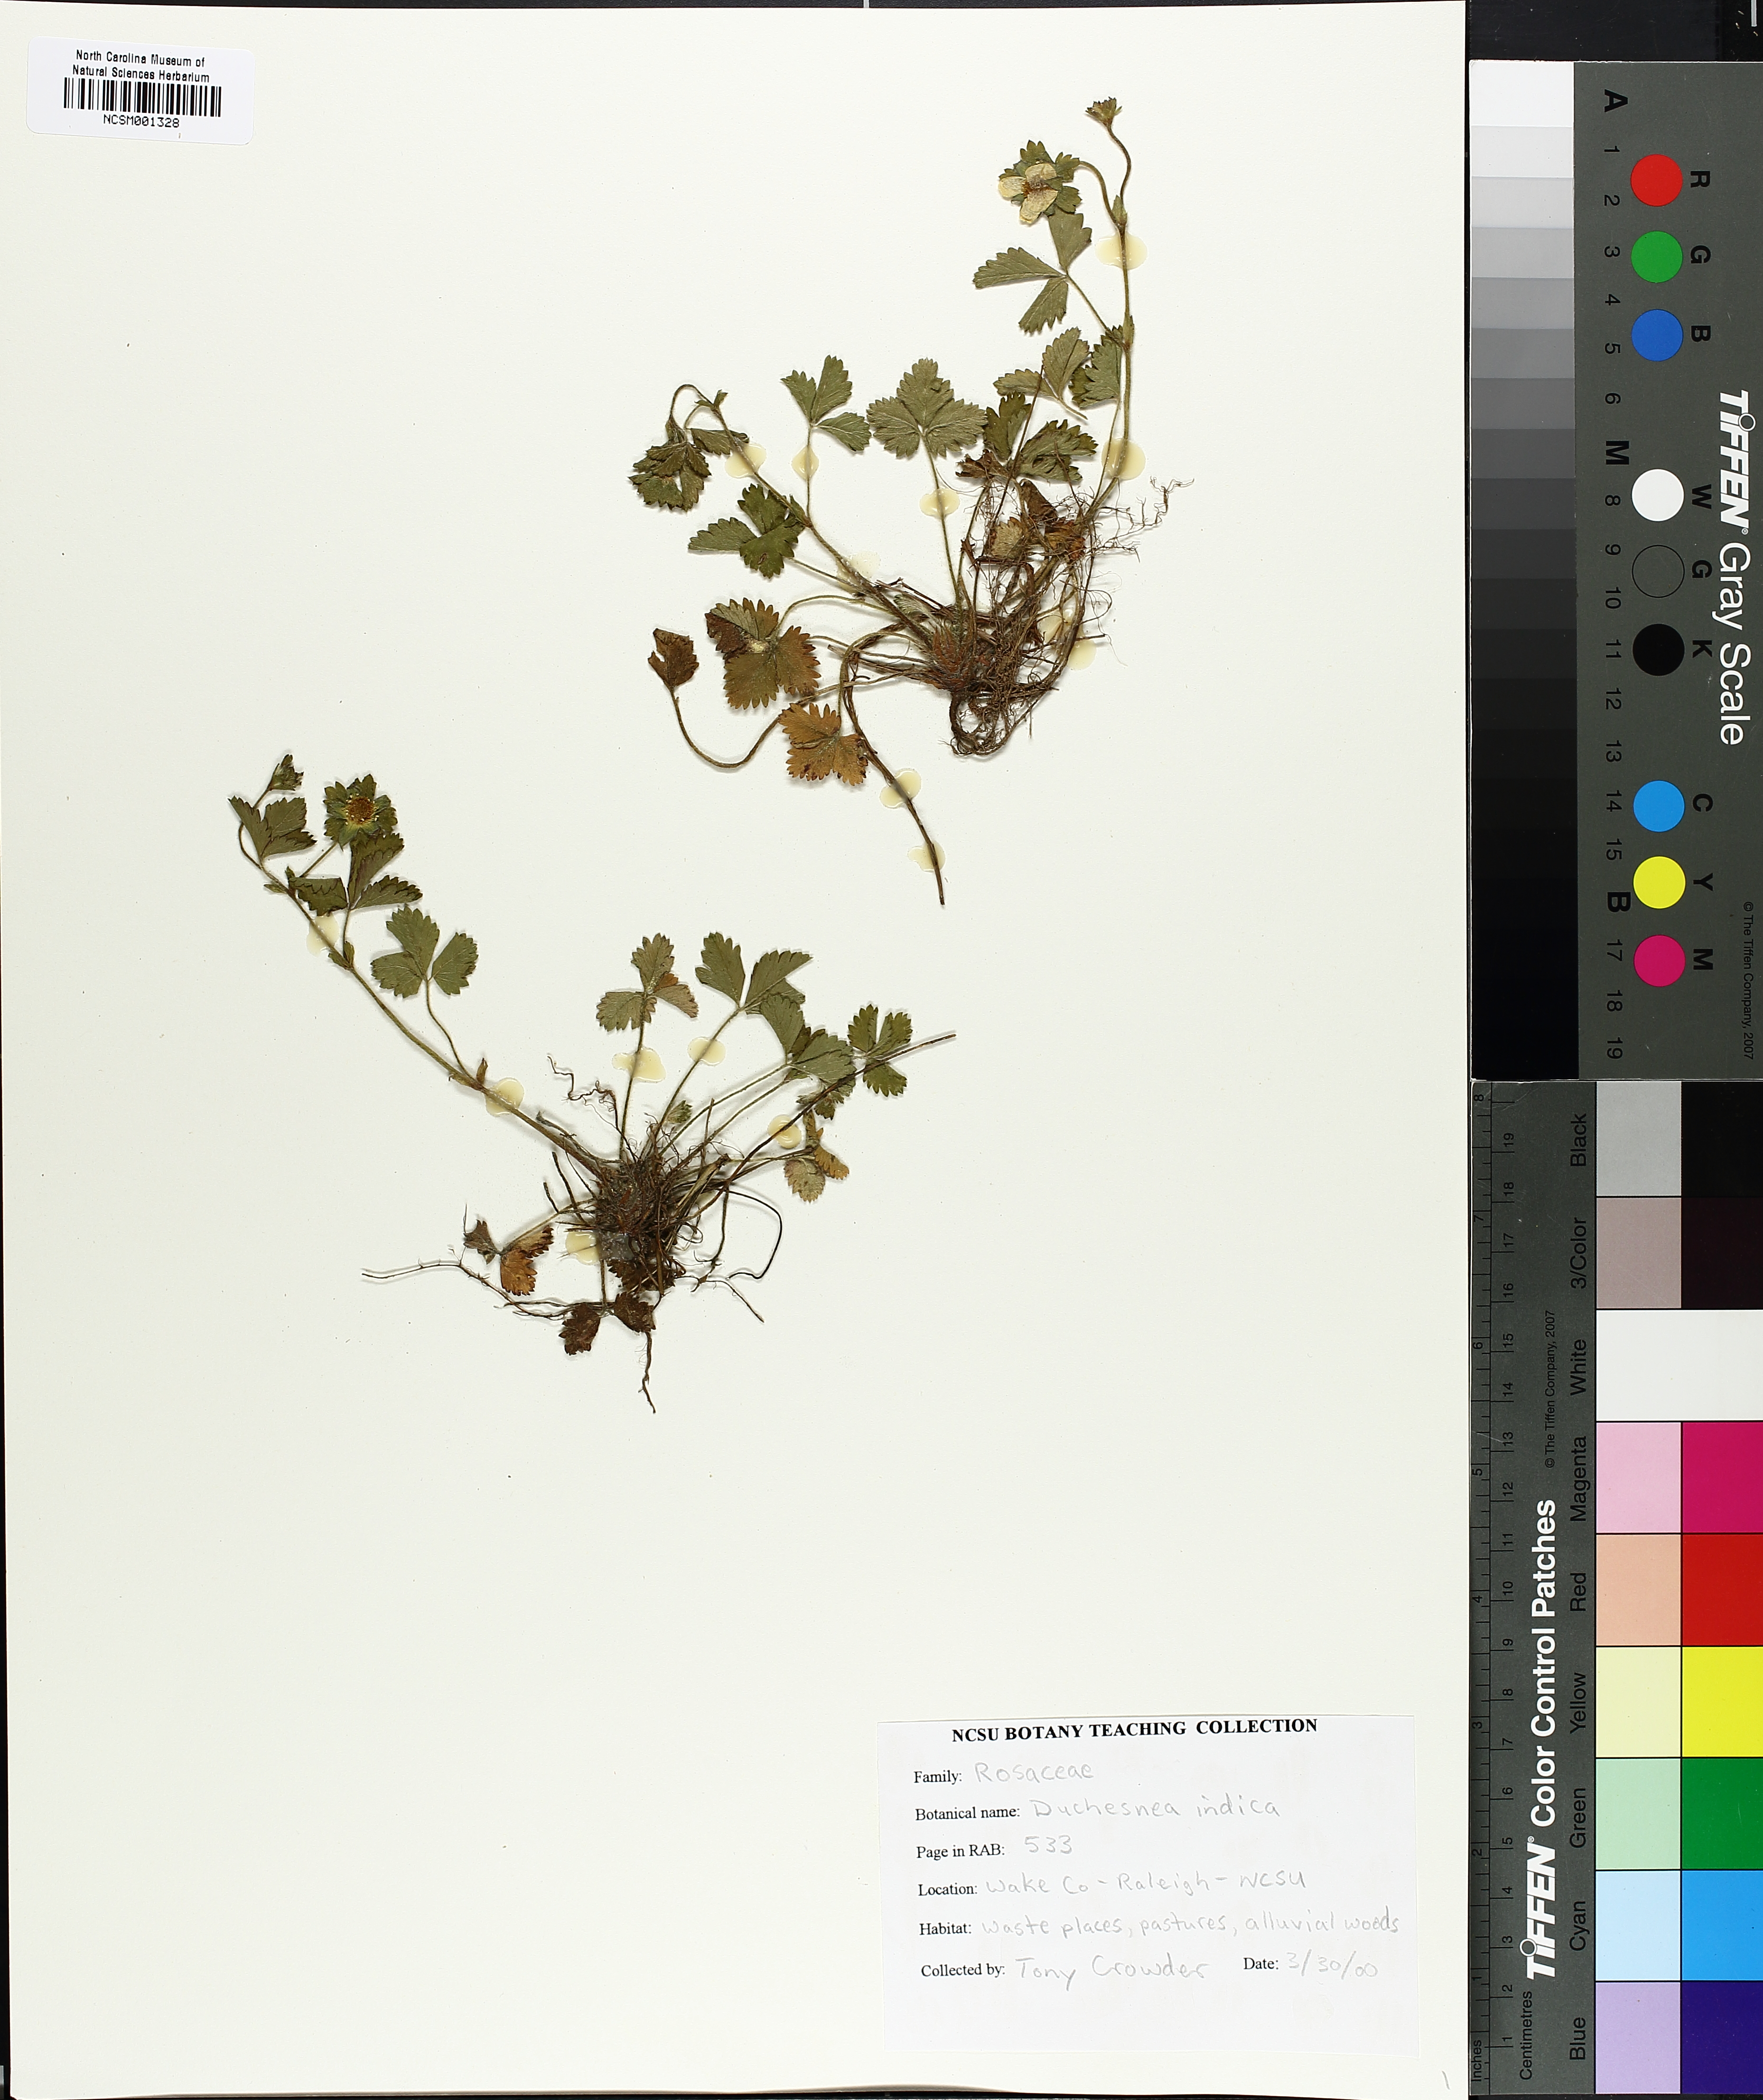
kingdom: Plantae
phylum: Tracheophyta
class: Magnoliopsida
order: Rosales
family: Rosaceae
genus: Potentilla
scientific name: Potentilla indica
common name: Yellow-flowered strawberry
